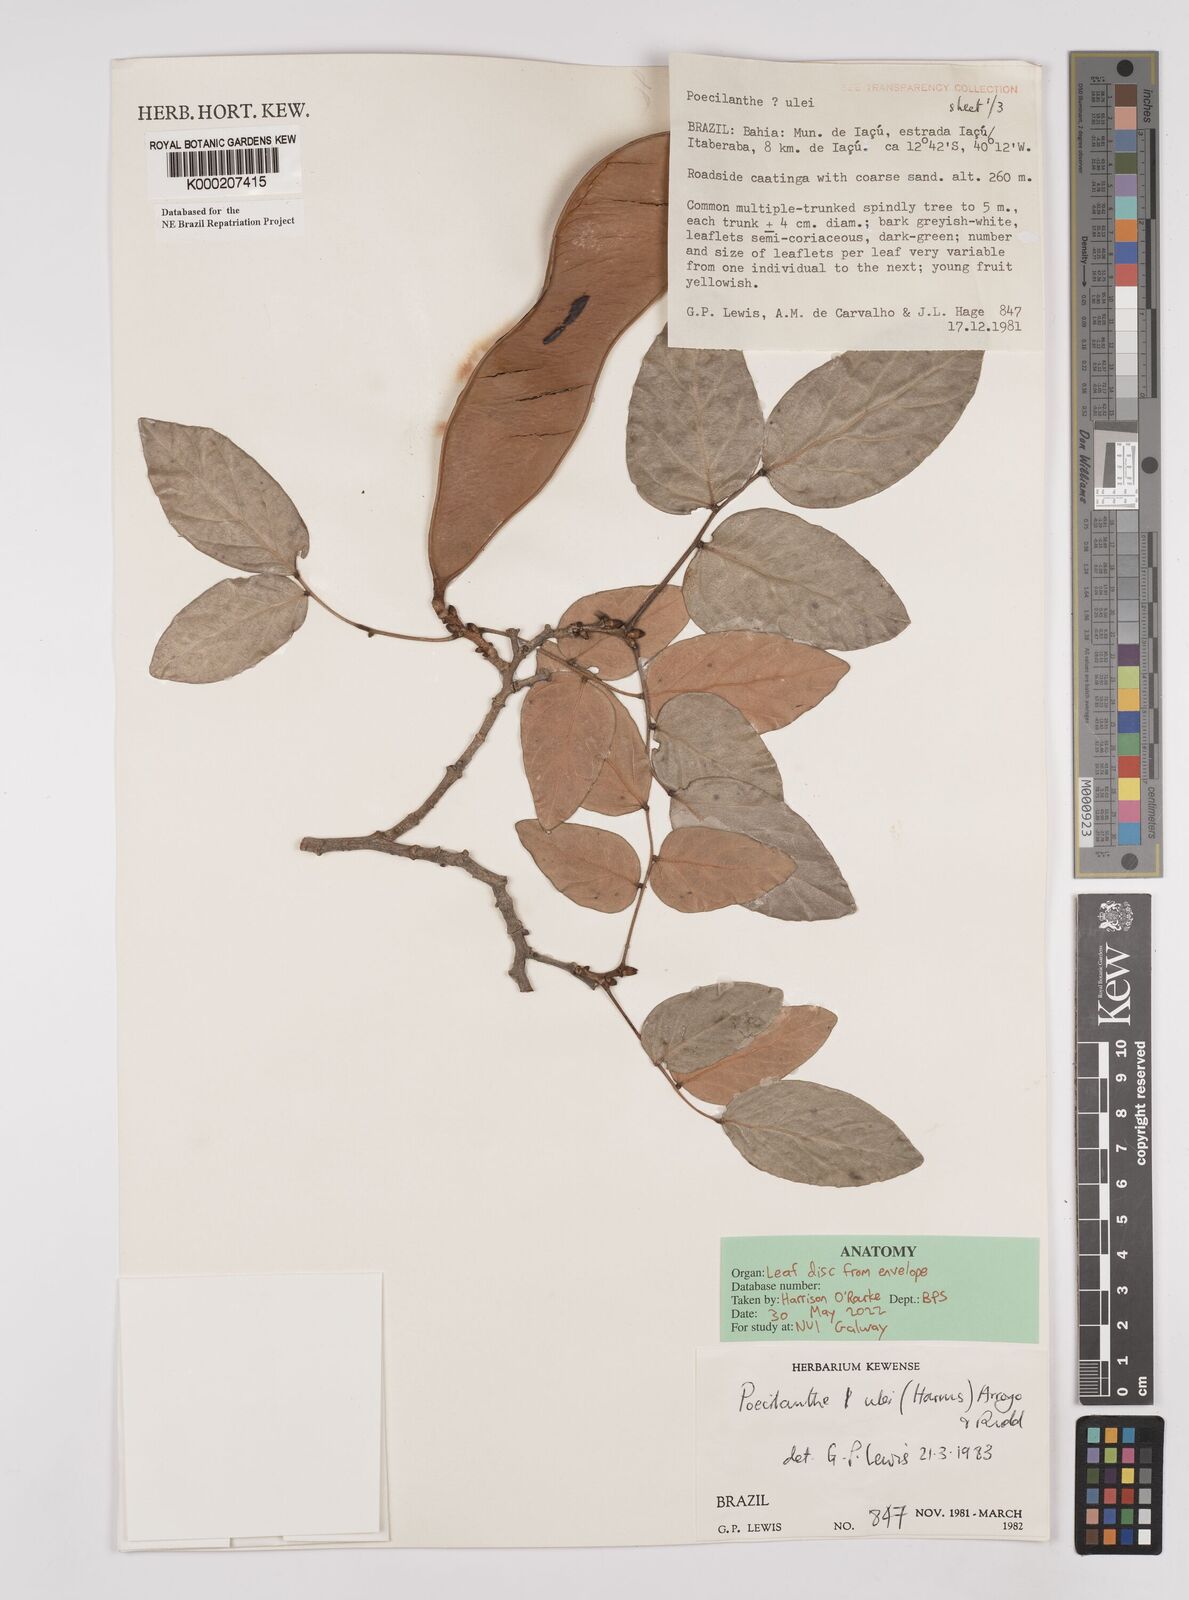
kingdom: Plantae
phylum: Tracheophyta
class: Magnoliopsida
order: Fabales
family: Fabaceae
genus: Poecilanthe
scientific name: Poecilanthe ulei
